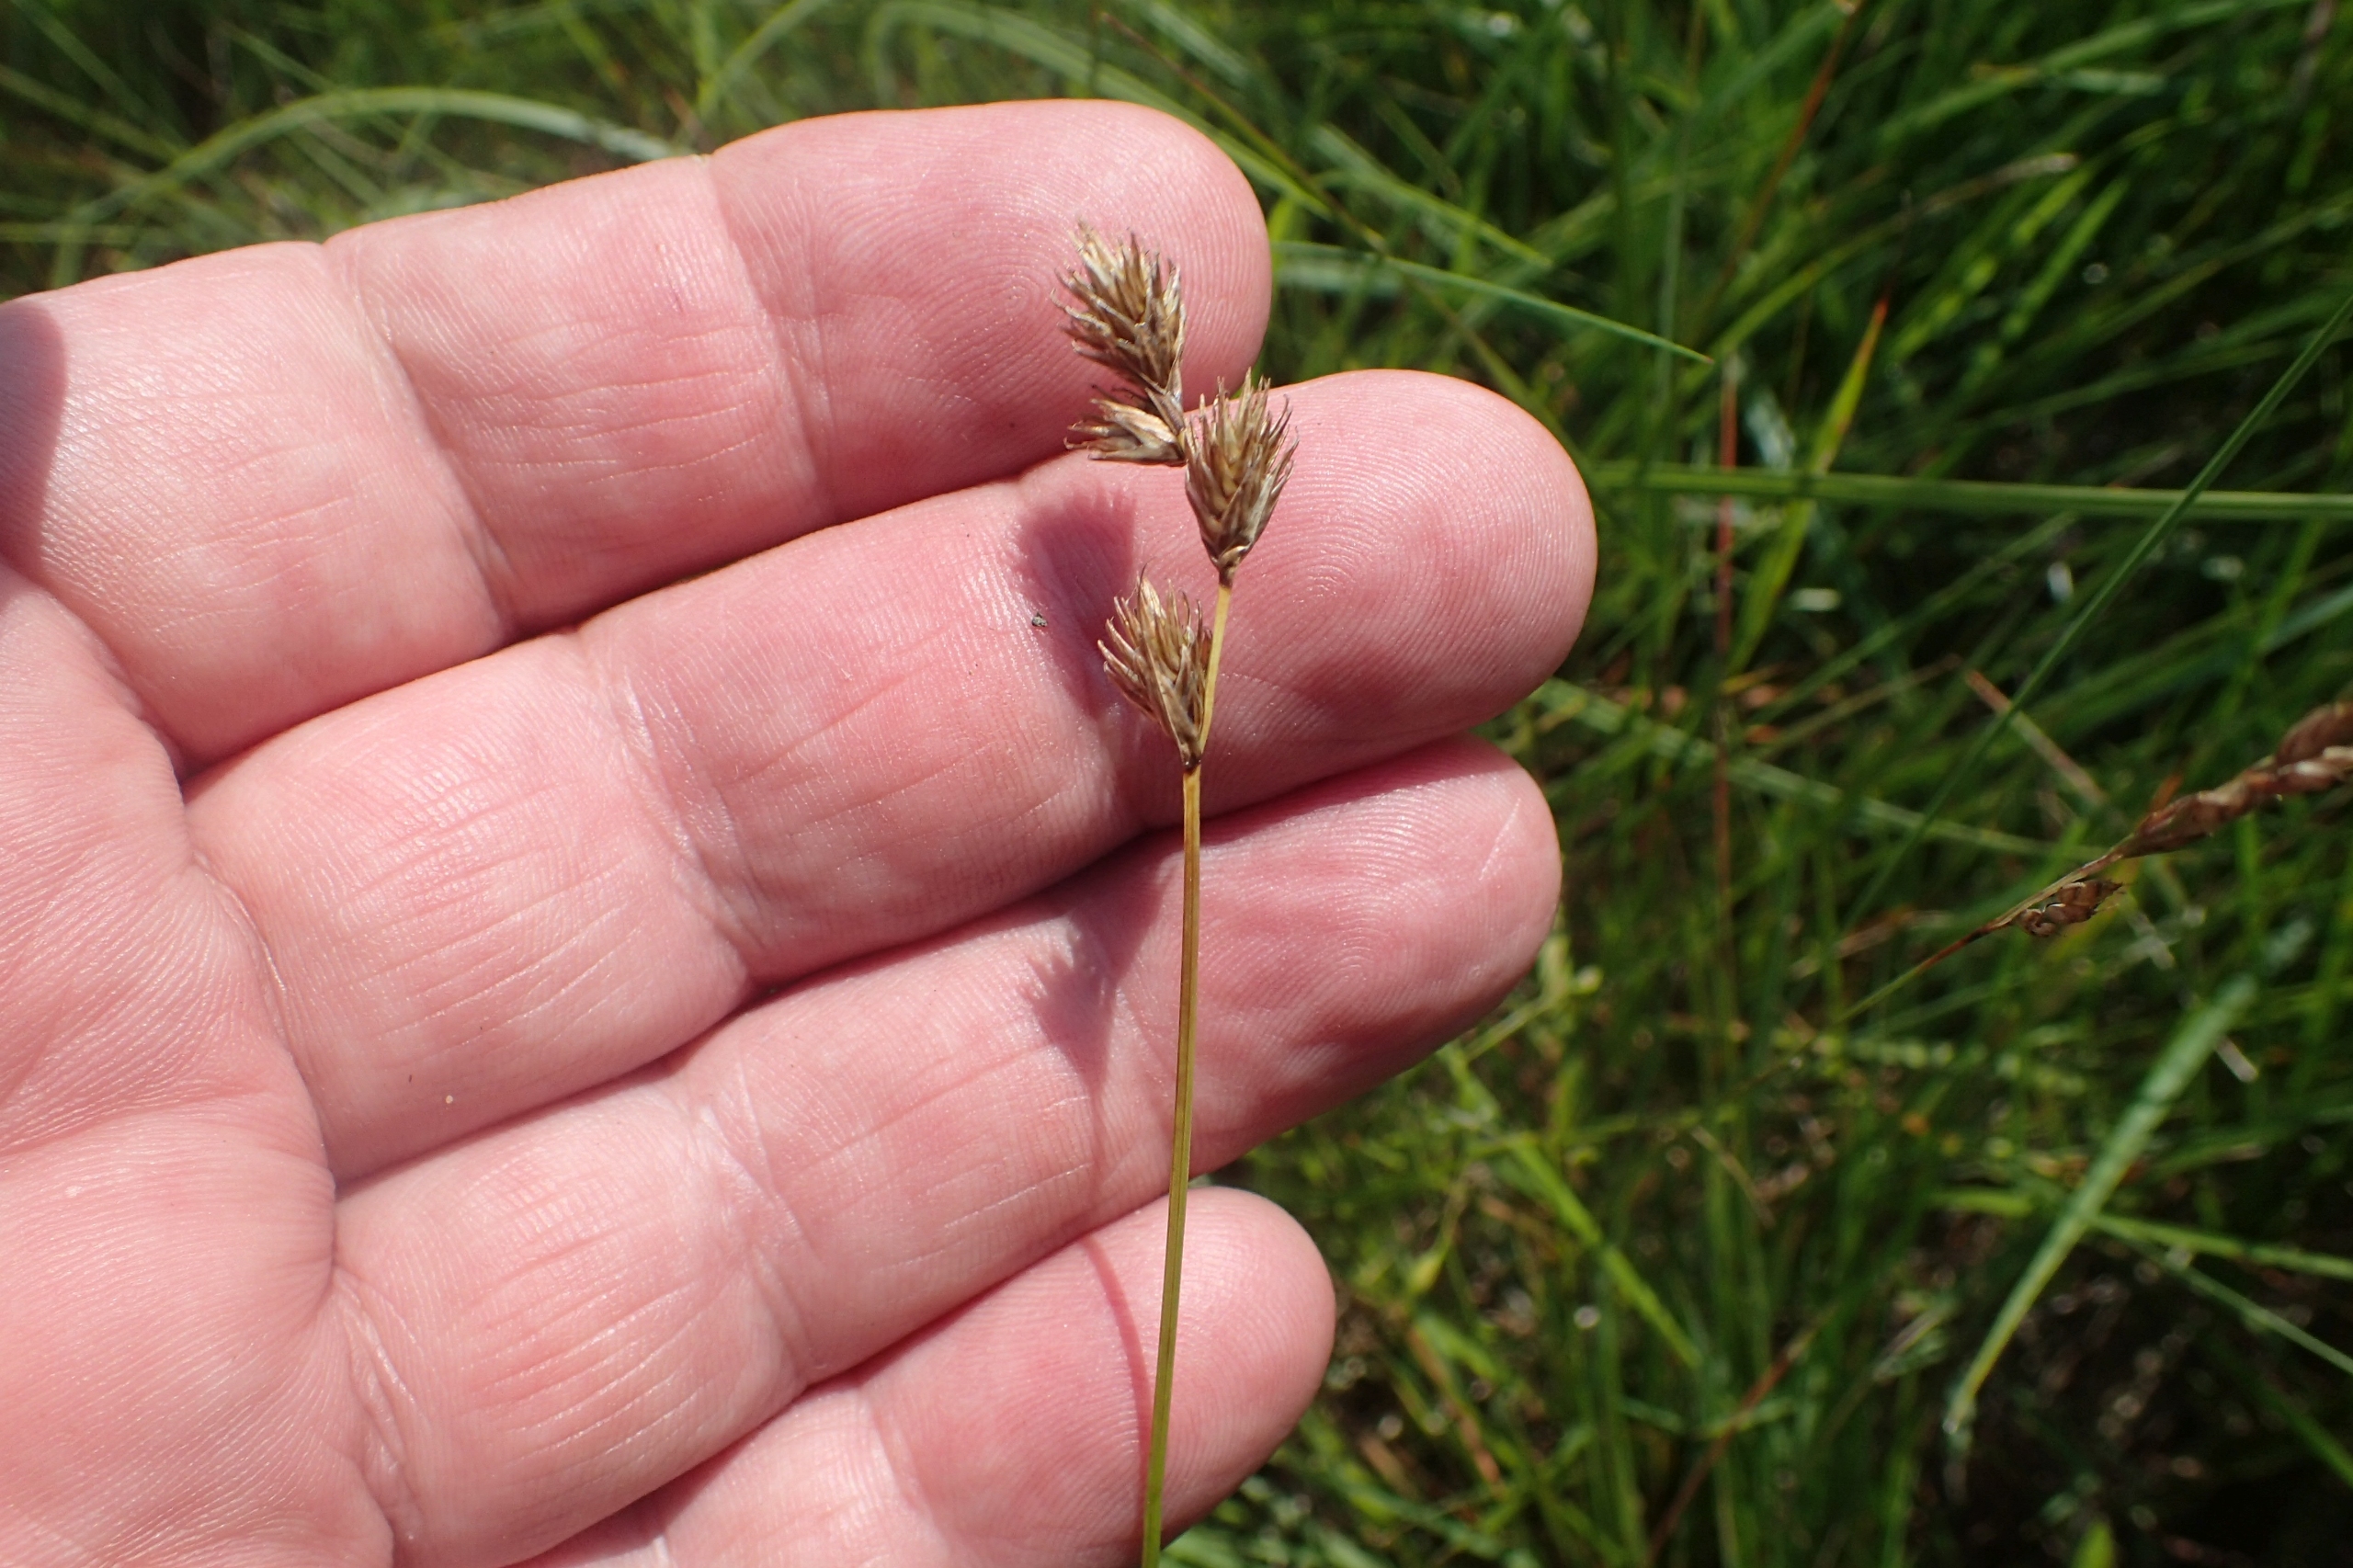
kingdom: Plantae
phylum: Tracheophyta
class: Liliopsida
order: Poales
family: Cyperaceae
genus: Carex
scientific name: Carex leporina
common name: Hare-star
